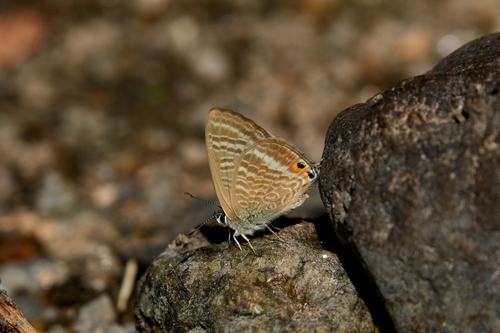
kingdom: Animalia
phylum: Arthropoda
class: Insecta
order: Lepidoptera
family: Lycaenidae
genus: Lampides
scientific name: Lampides boeticus
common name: Long-tailed blue
